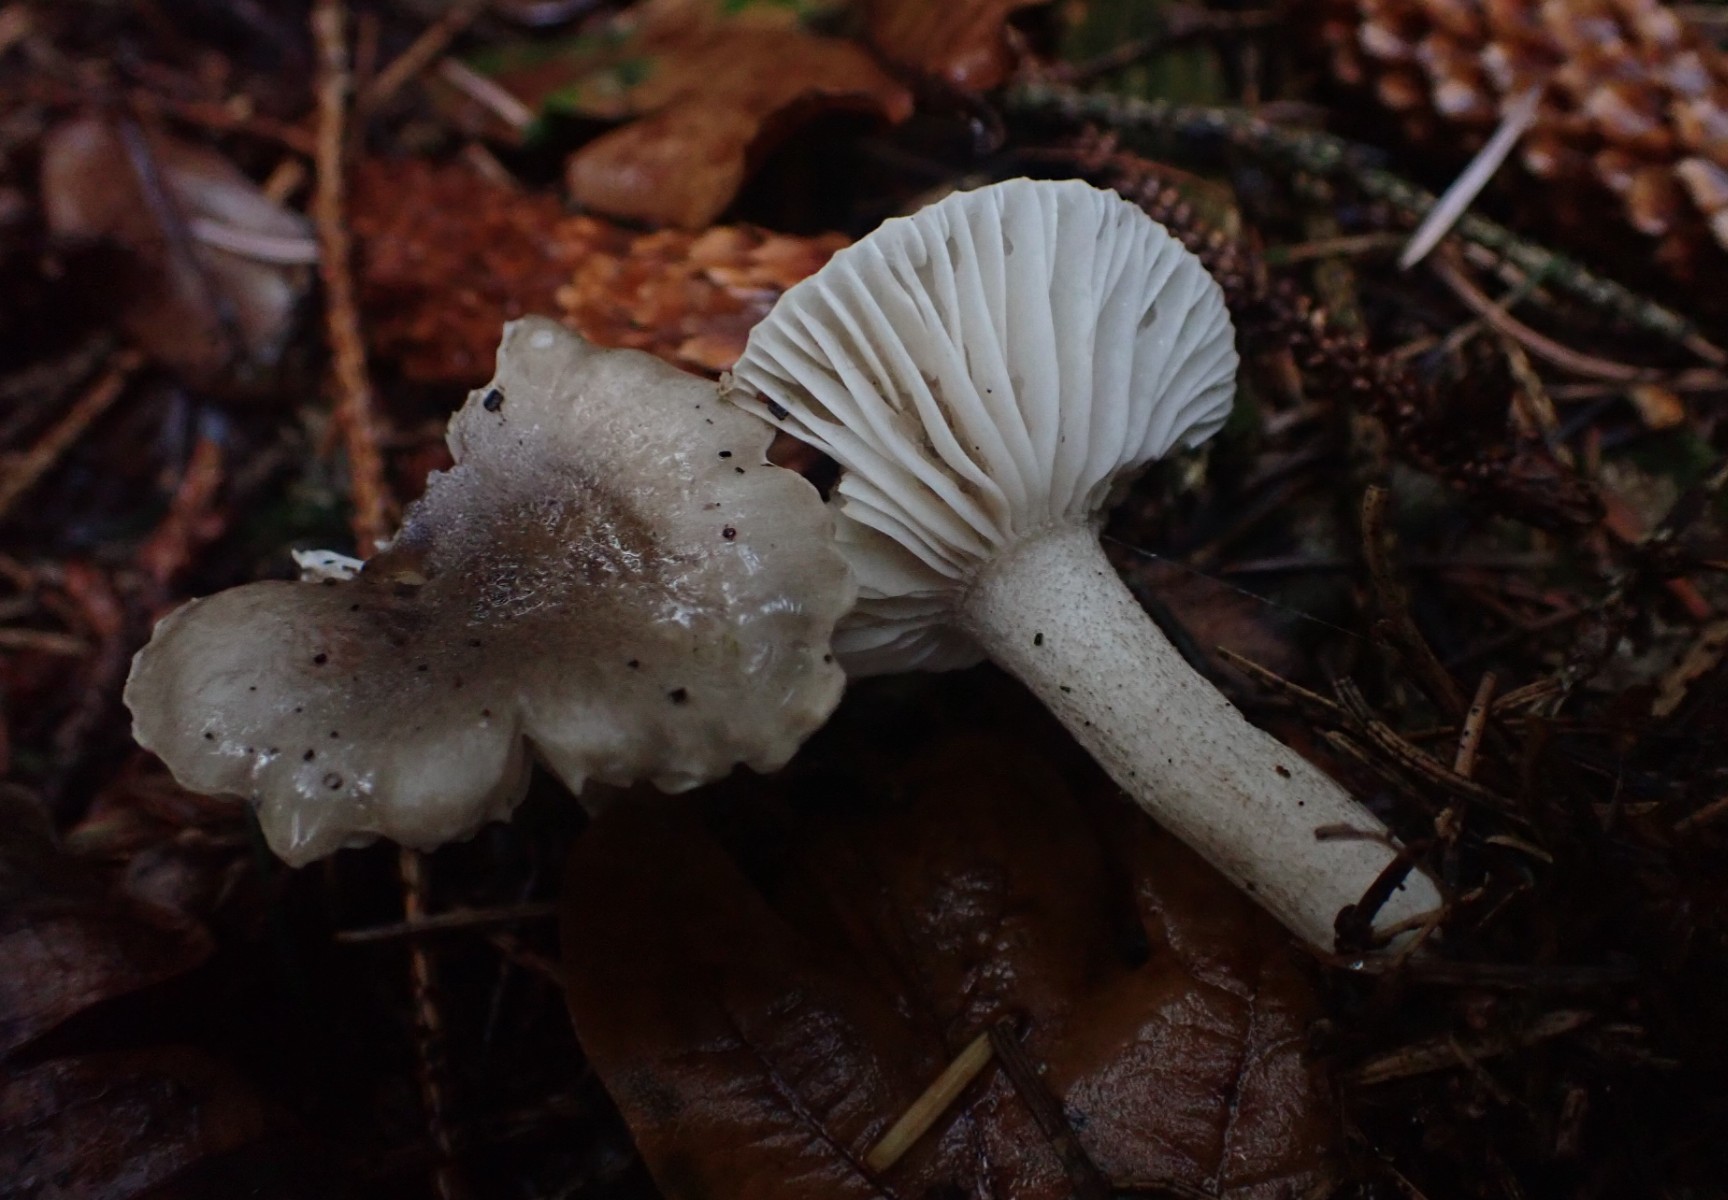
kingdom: Fungi
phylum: Basidiomycota
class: Agaricomycetes
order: Agaricales
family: Hygrophoraceae
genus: Hygrophorus
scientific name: Hygrophorus pustulatus
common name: mørkprikket sneglehat
